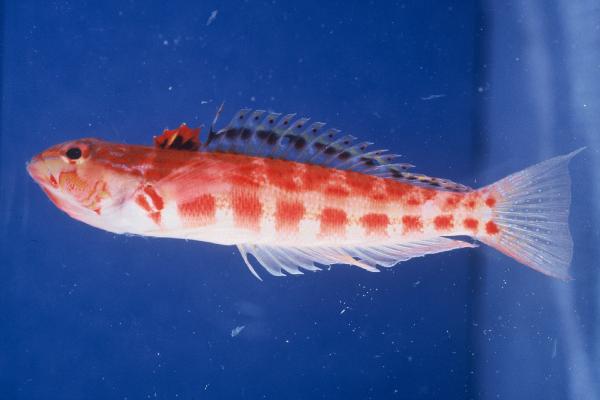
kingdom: Animalia
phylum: Chordata
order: Perciformes
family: Pinguipedidae
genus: Parapercis
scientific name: Parapercis schauinslandii
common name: Redspotted sandperch
